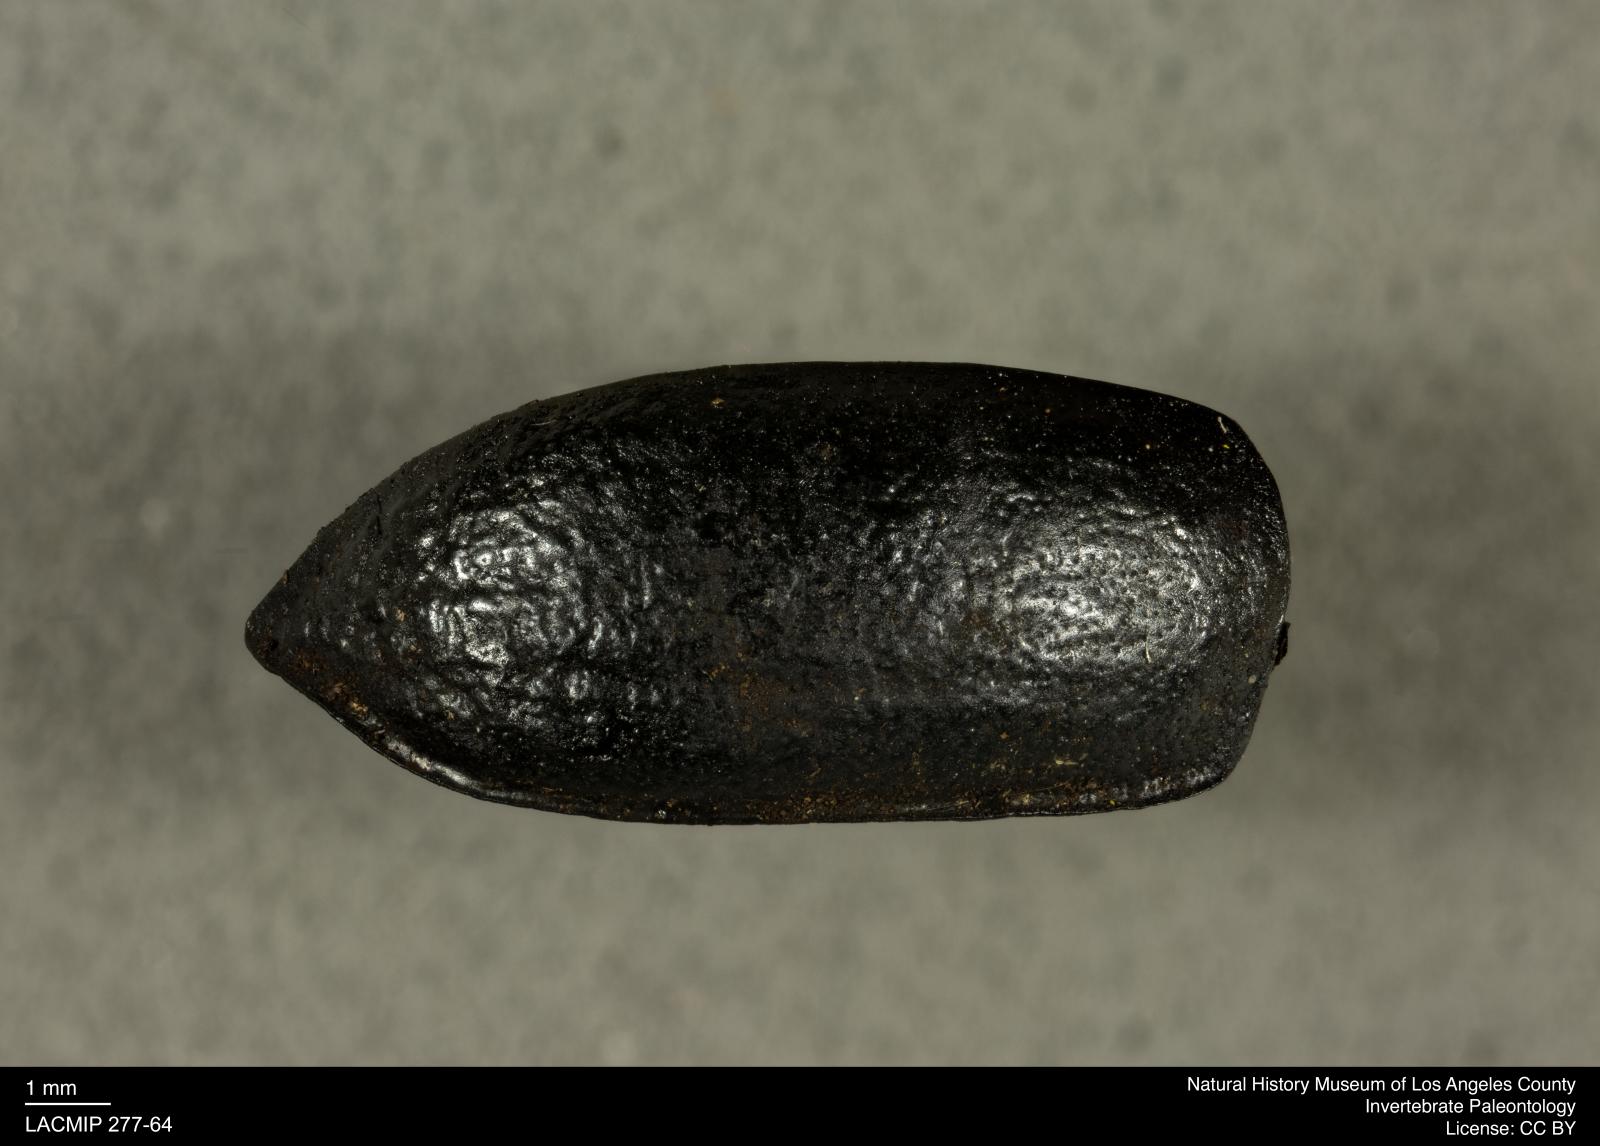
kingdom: Animalia
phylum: Arthropoda
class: Insecta
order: Coleoptera
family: Tenebrionidae
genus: Coniontis
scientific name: Coniontis abdominalis
